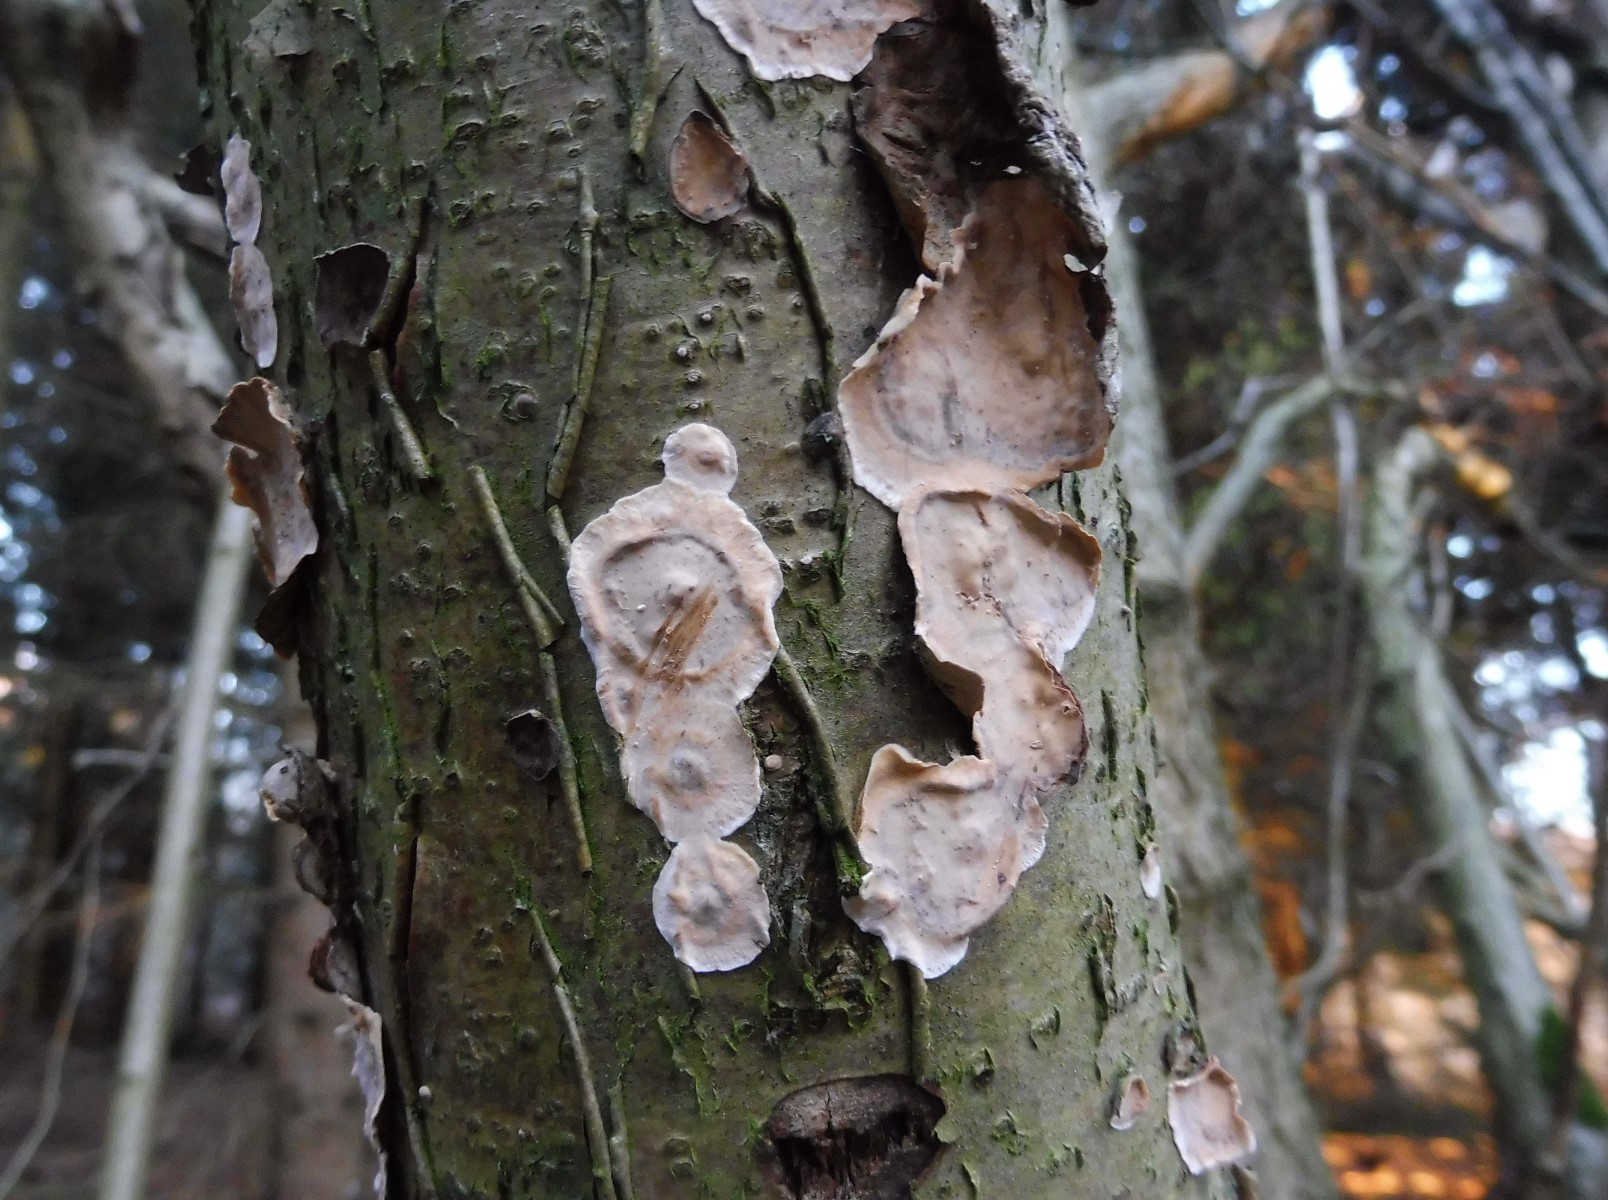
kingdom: Fungi
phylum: Basidiomycota
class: Agaricomycetes
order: Russulales
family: Stereaceae
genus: Stereum
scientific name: Stereum rugosum
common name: rynket lædersvamp
